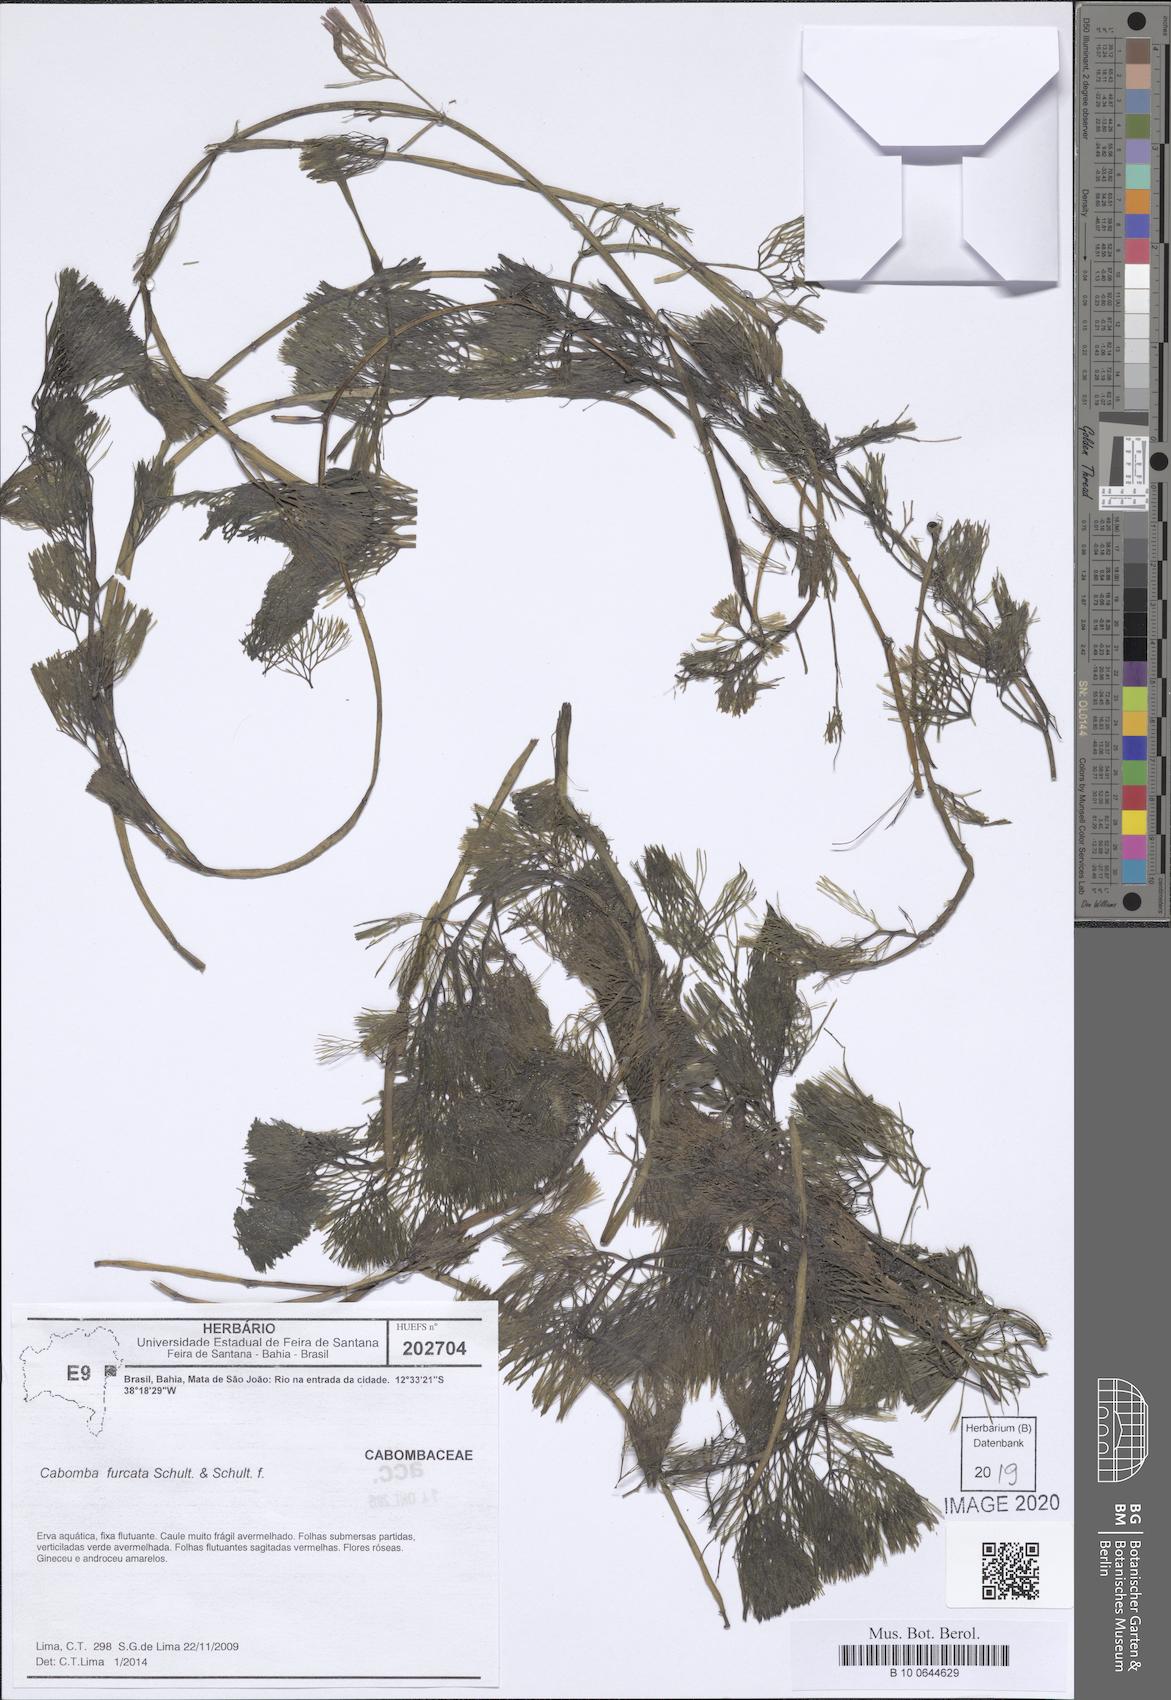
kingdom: Plantae
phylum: Tracheophyta
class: Magnoliopsida
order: Nymphaeales
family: Cabombaceae
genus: Cabomba
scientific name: Cabomba furcata
